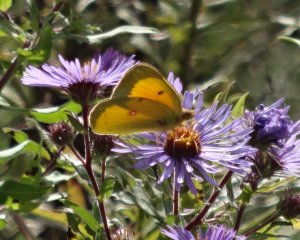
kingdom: Animalia
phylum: Arthropoda
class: Insecta
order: Lepidoptera
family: Pieridae
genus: Colias
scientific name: Colias eurytheme
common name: Orange Sulphur
